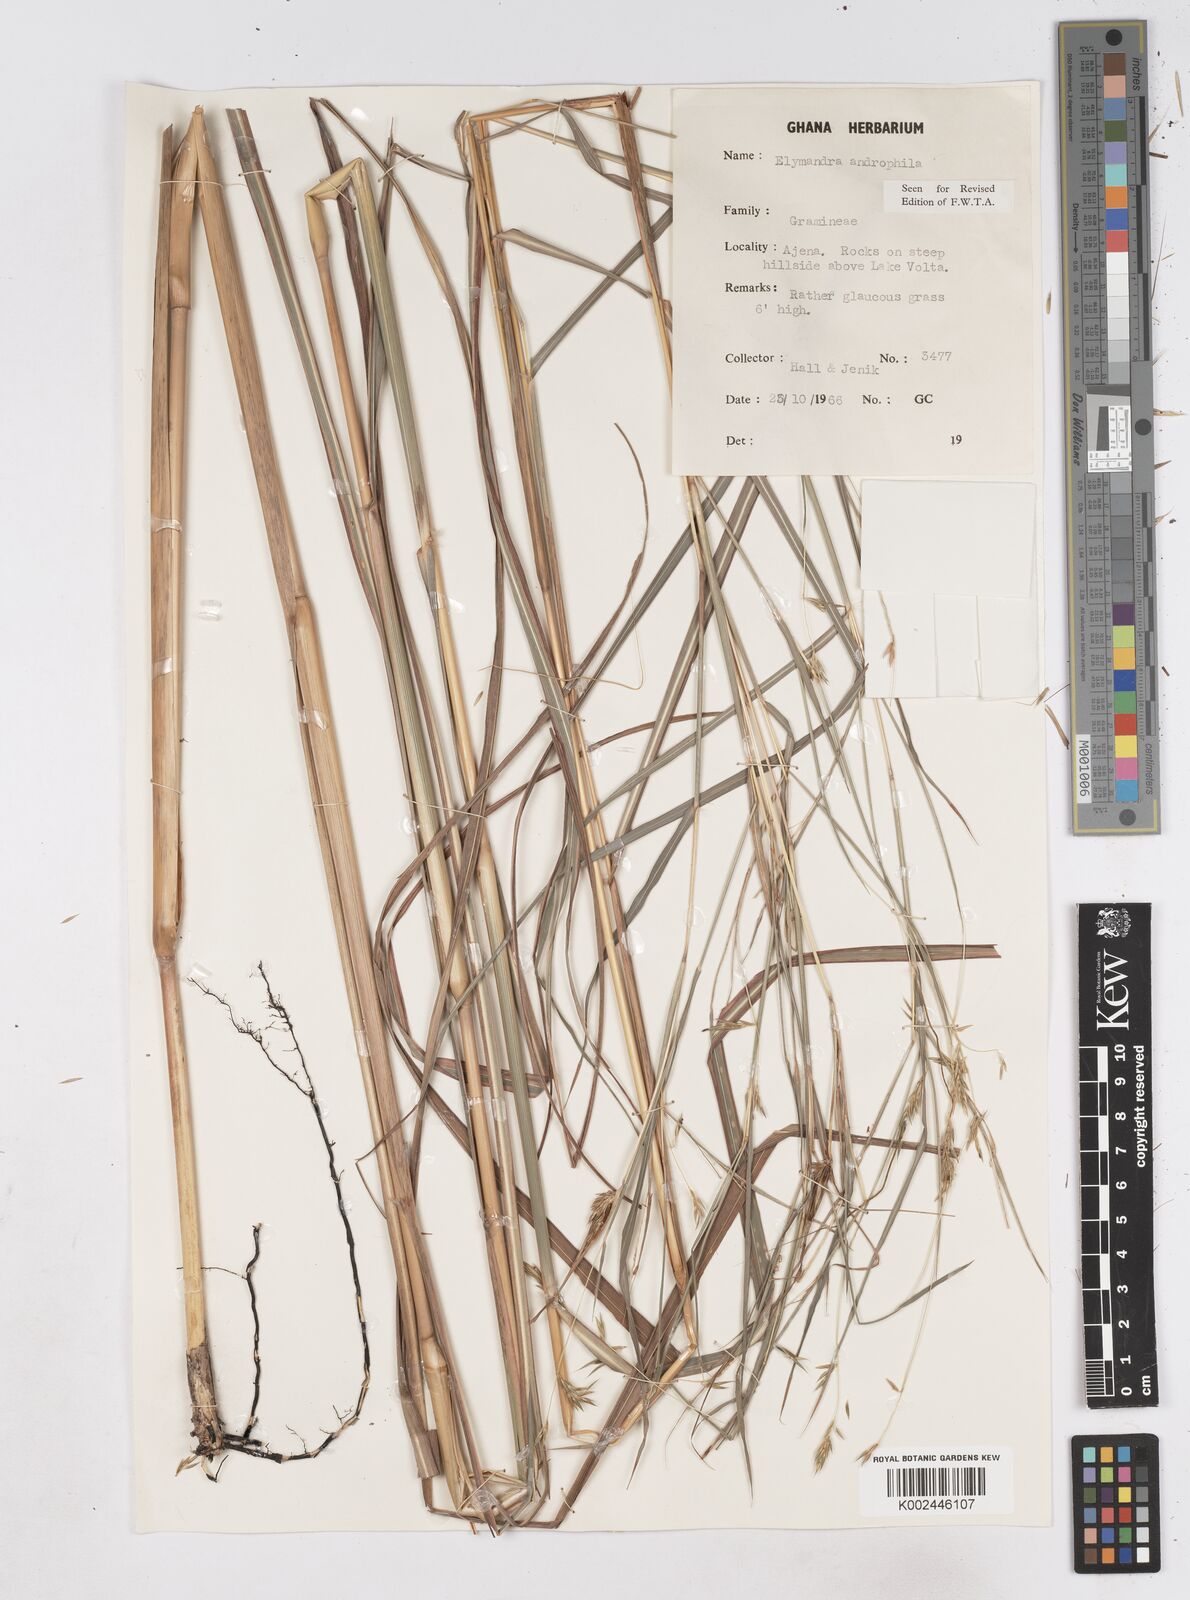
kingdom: Plantae
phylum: Tracheophyta
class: Liliopsida
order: Poales
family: Poaceae
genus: Elymandra
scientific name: Elymandra androphila
